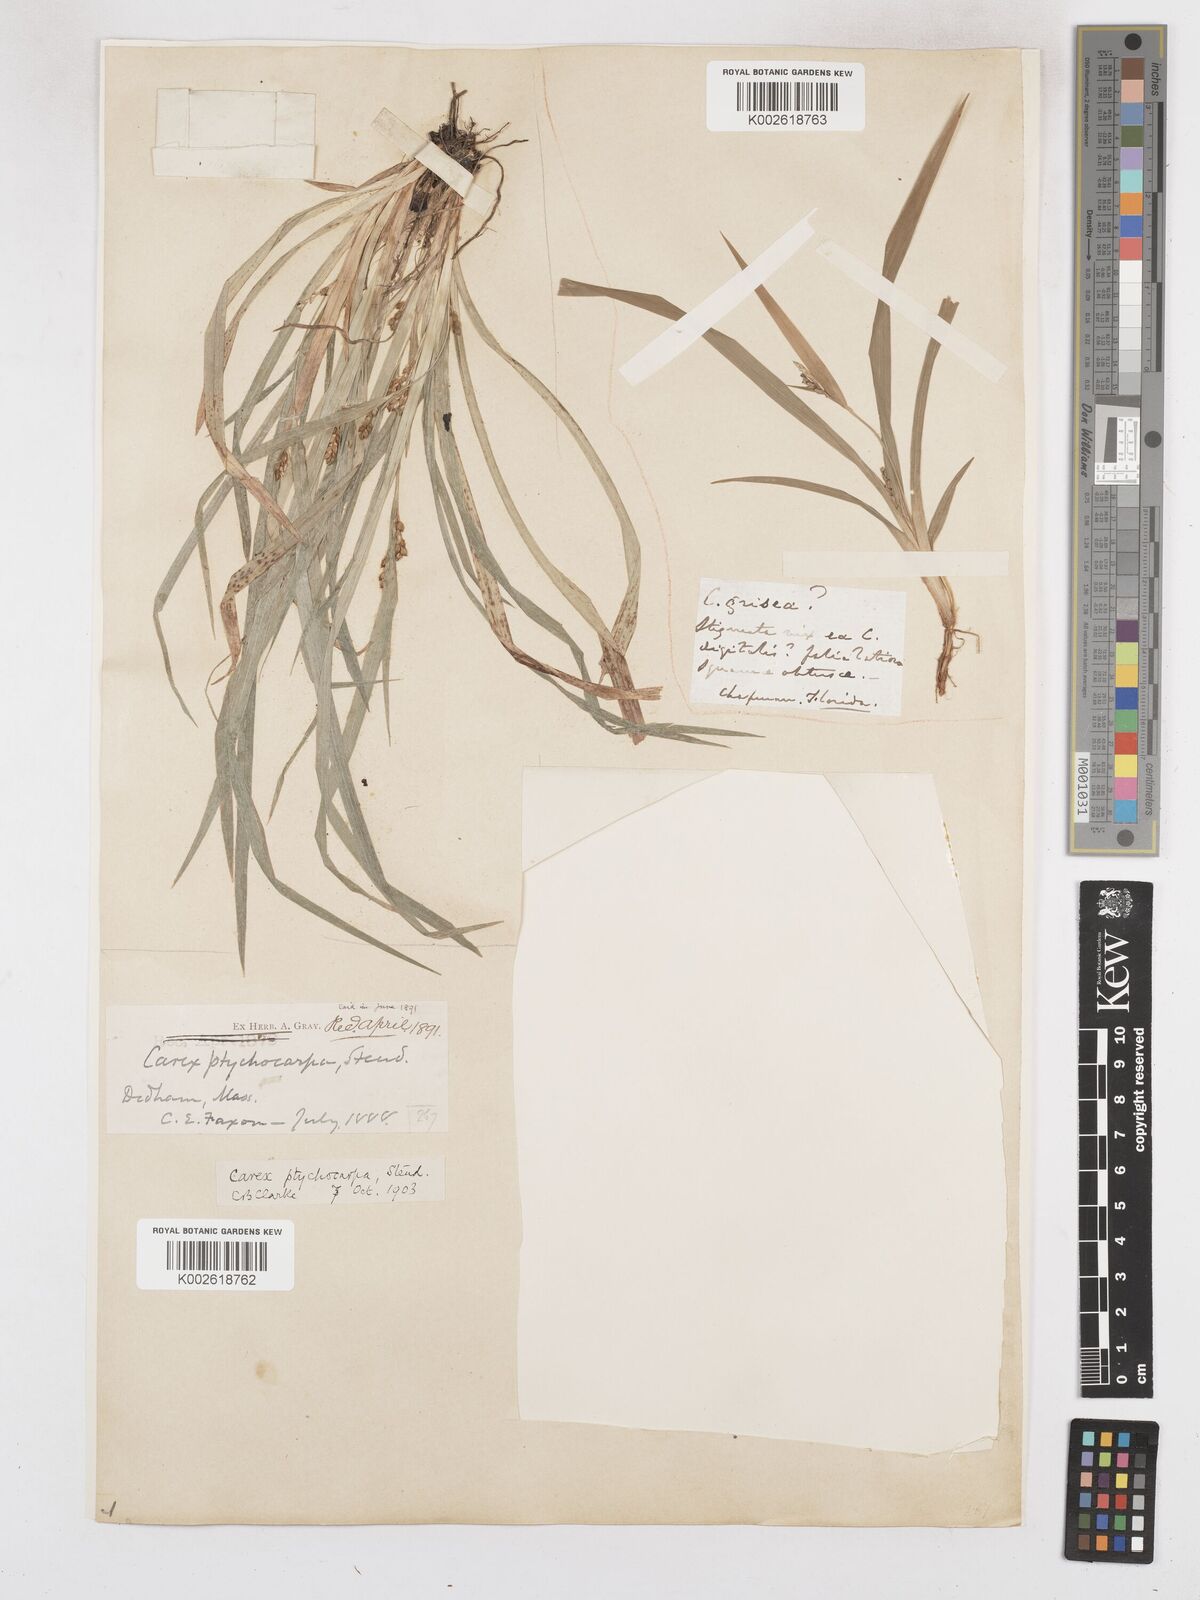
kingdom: Plantae
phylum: Tracheophyta
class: Liliopsida
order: Poales
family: Cyperaceae
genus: Carex
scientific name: Carex abscondita
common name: Thicket sedge
